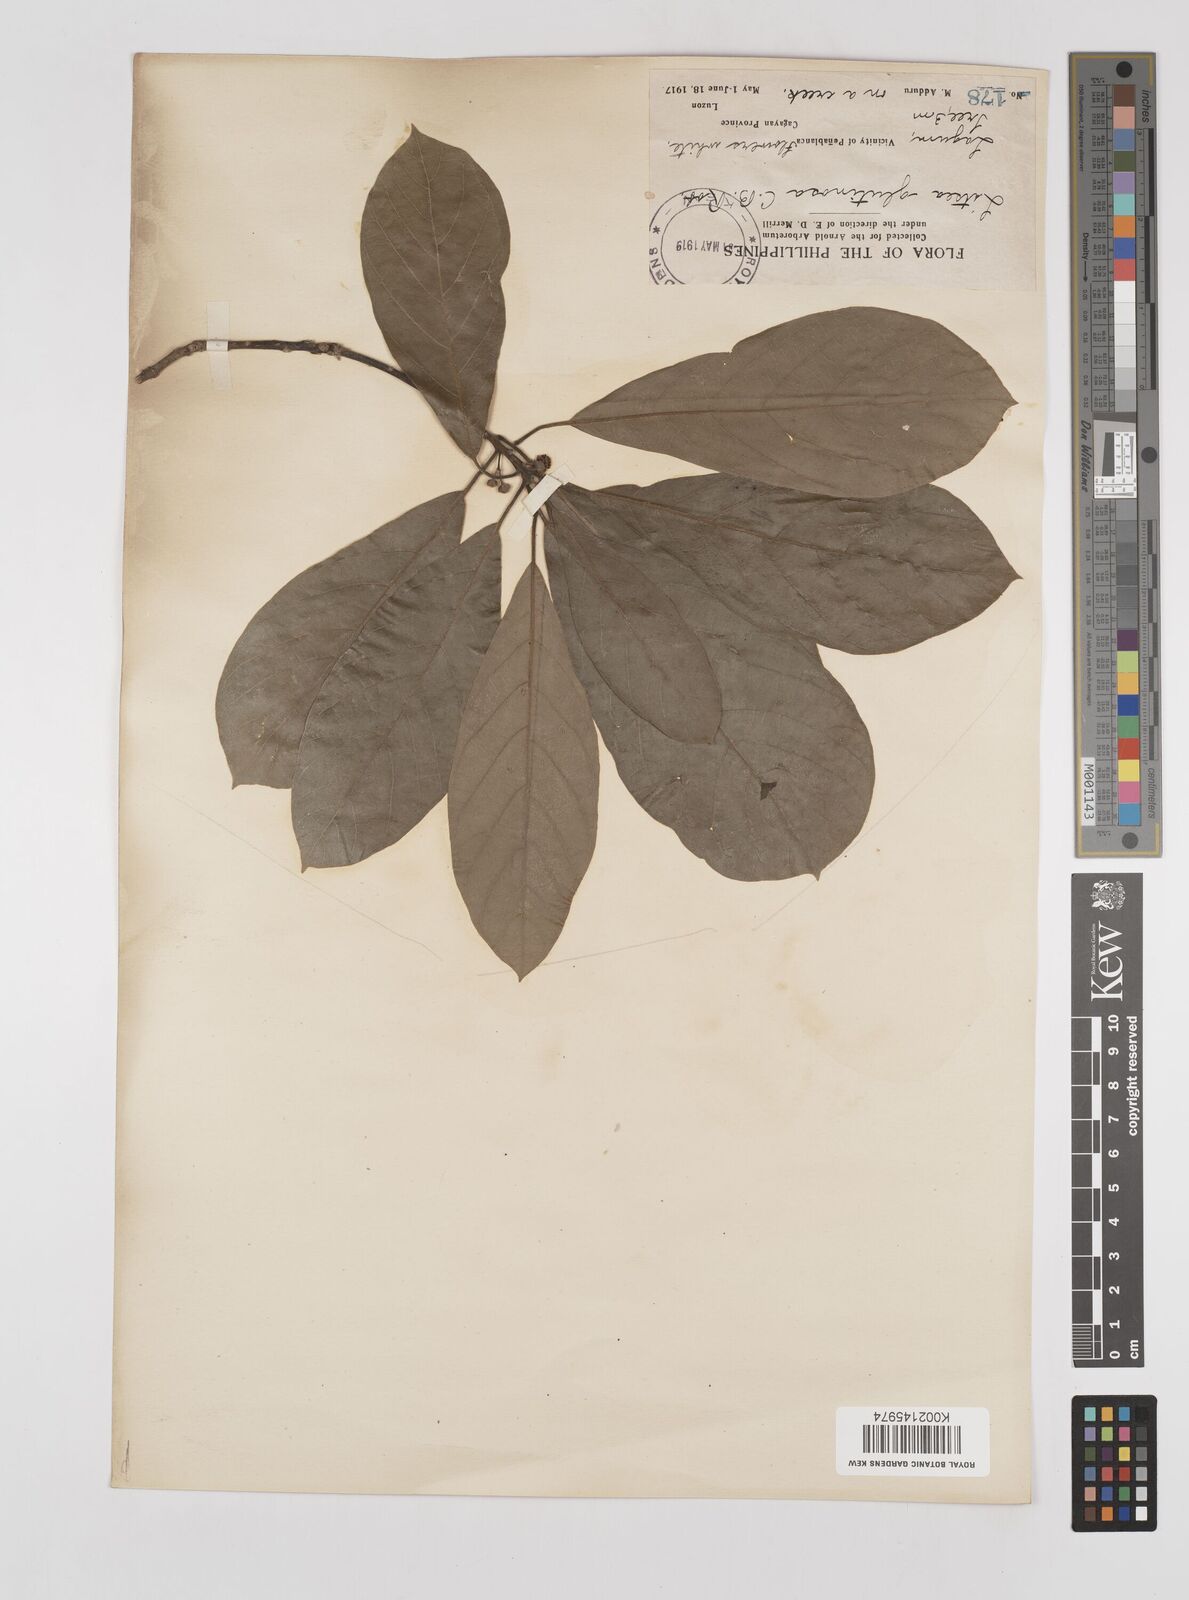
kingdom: Plantae
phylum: Tracheophyta
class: Magnoliopsida
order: Laurales
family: Lauraceae
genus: Litsea
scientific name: Litsea glutinosa
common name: Indian-laurel
